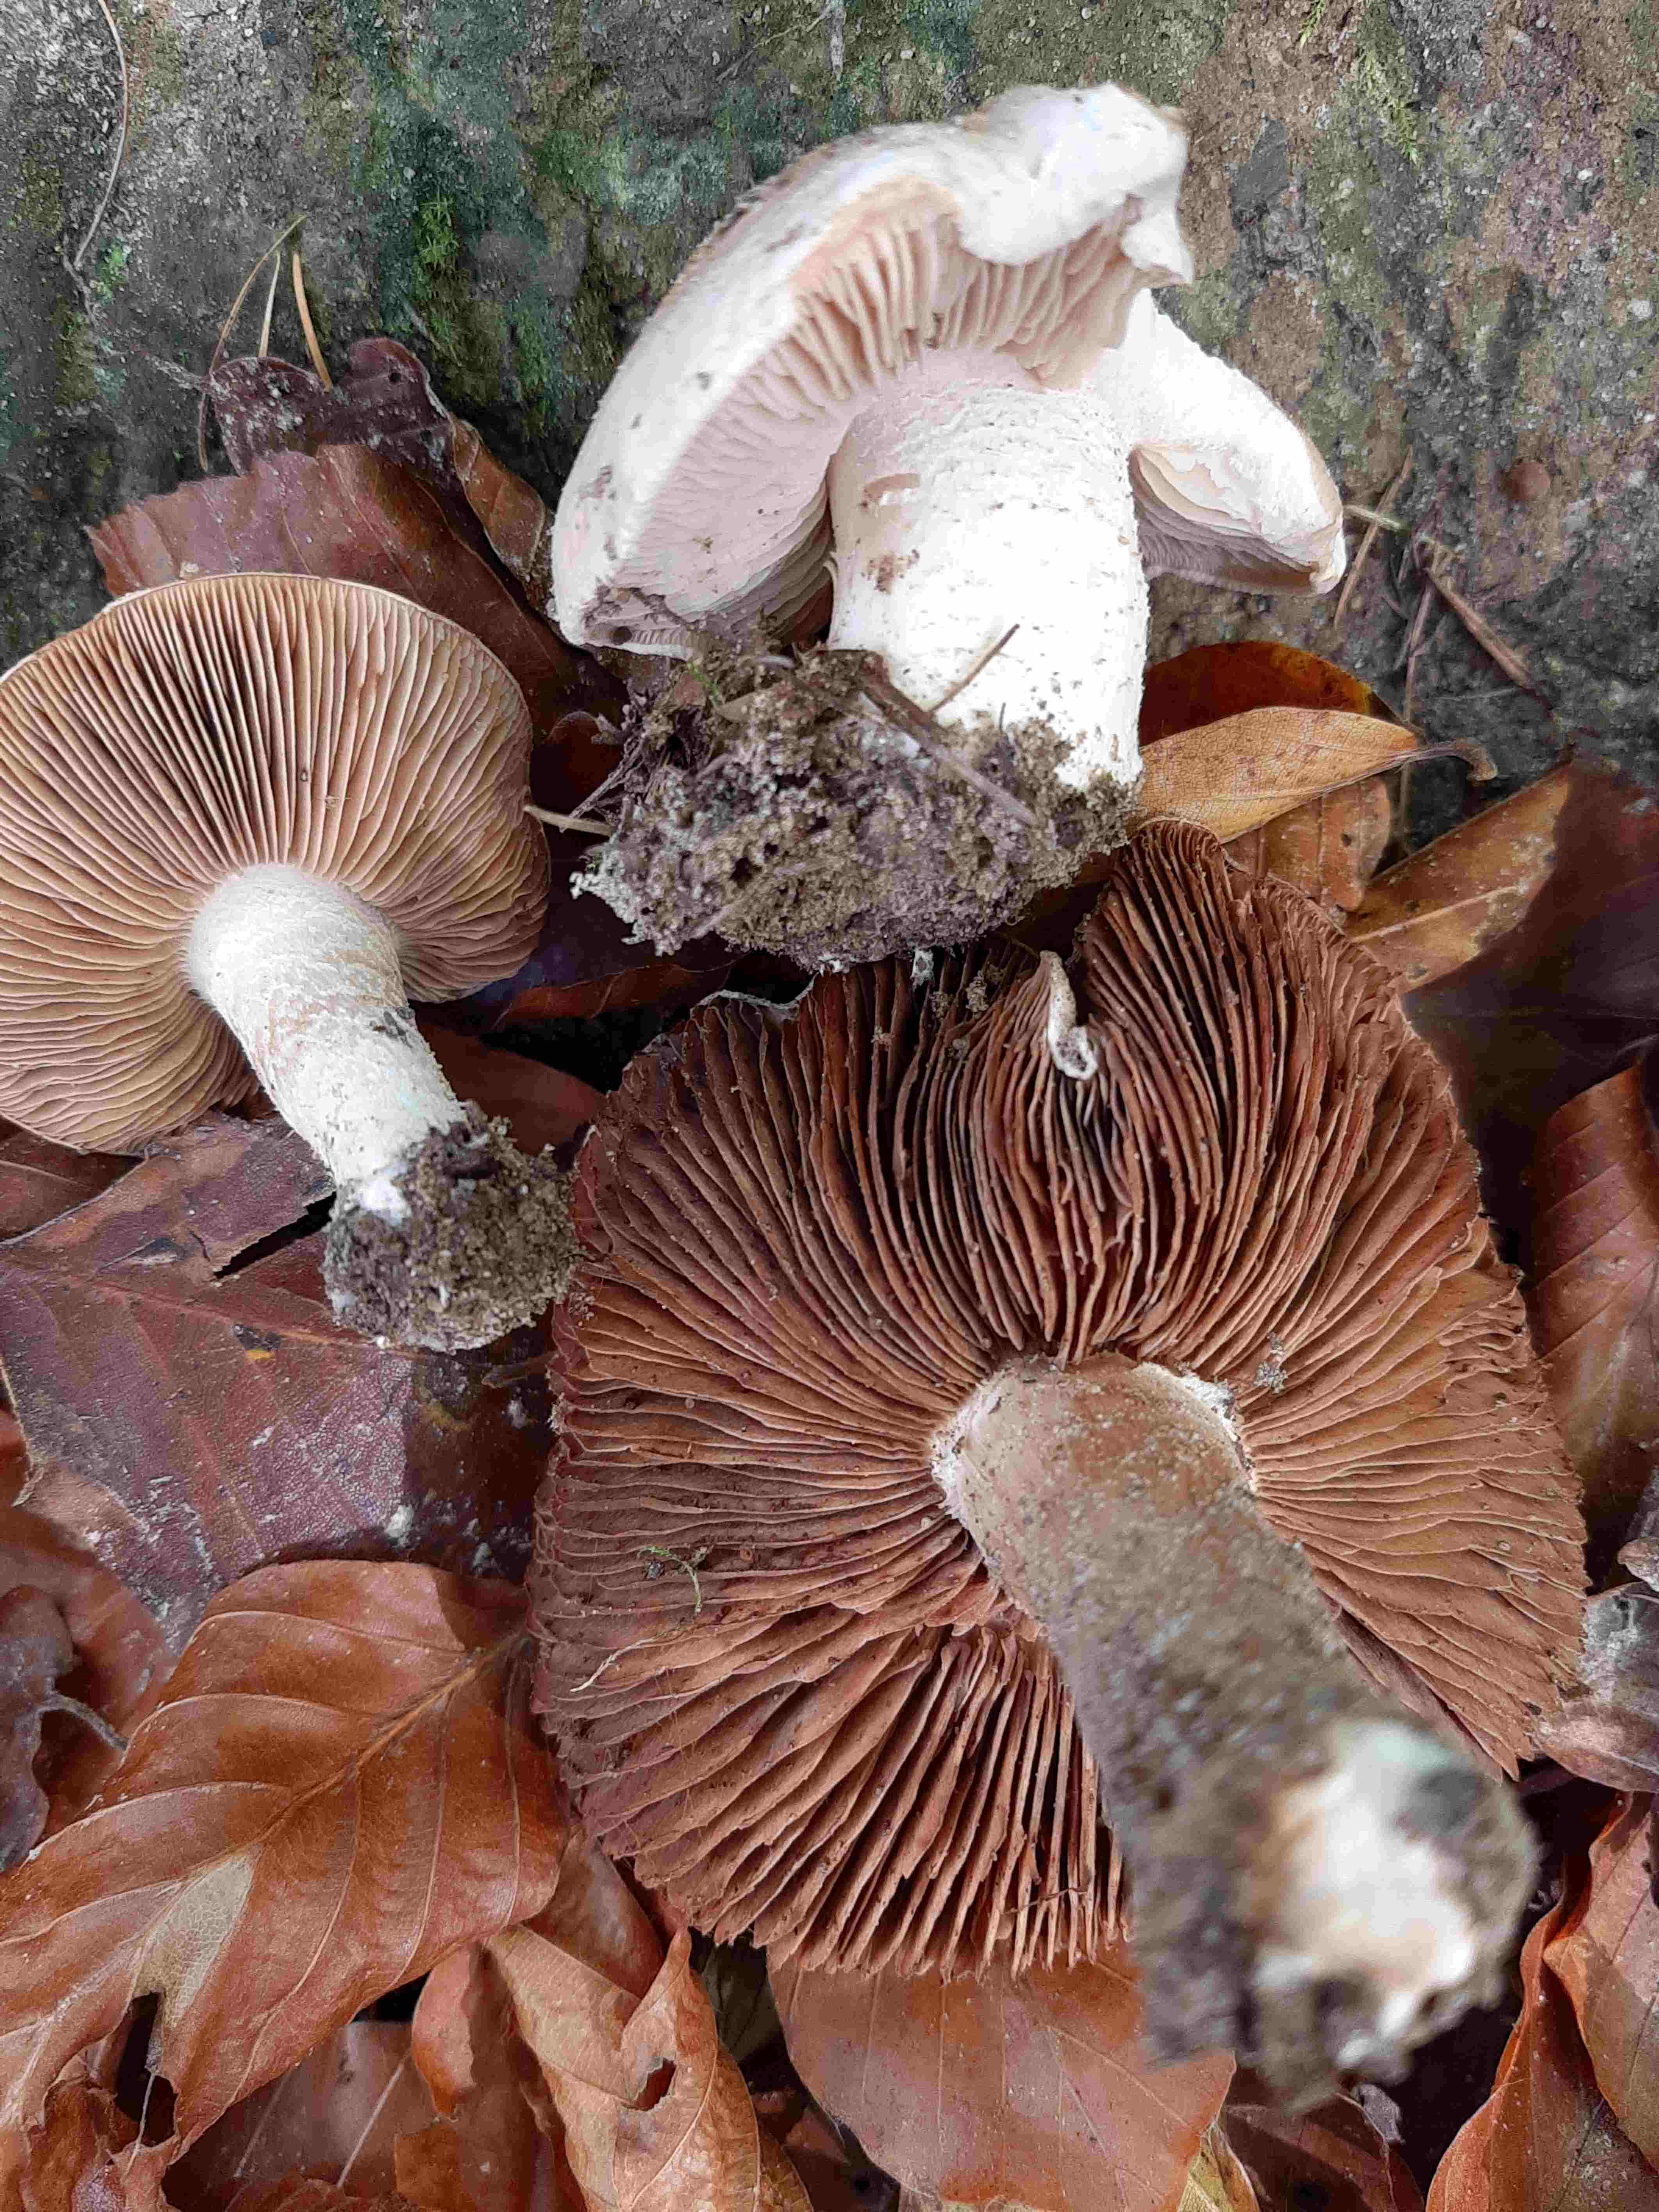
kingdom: Fungi
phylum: Basidiomycota
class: Agaricomycetes
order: Agaricales
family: Hymenogastraceae
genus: Hebeloma
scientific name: Hebeloma
